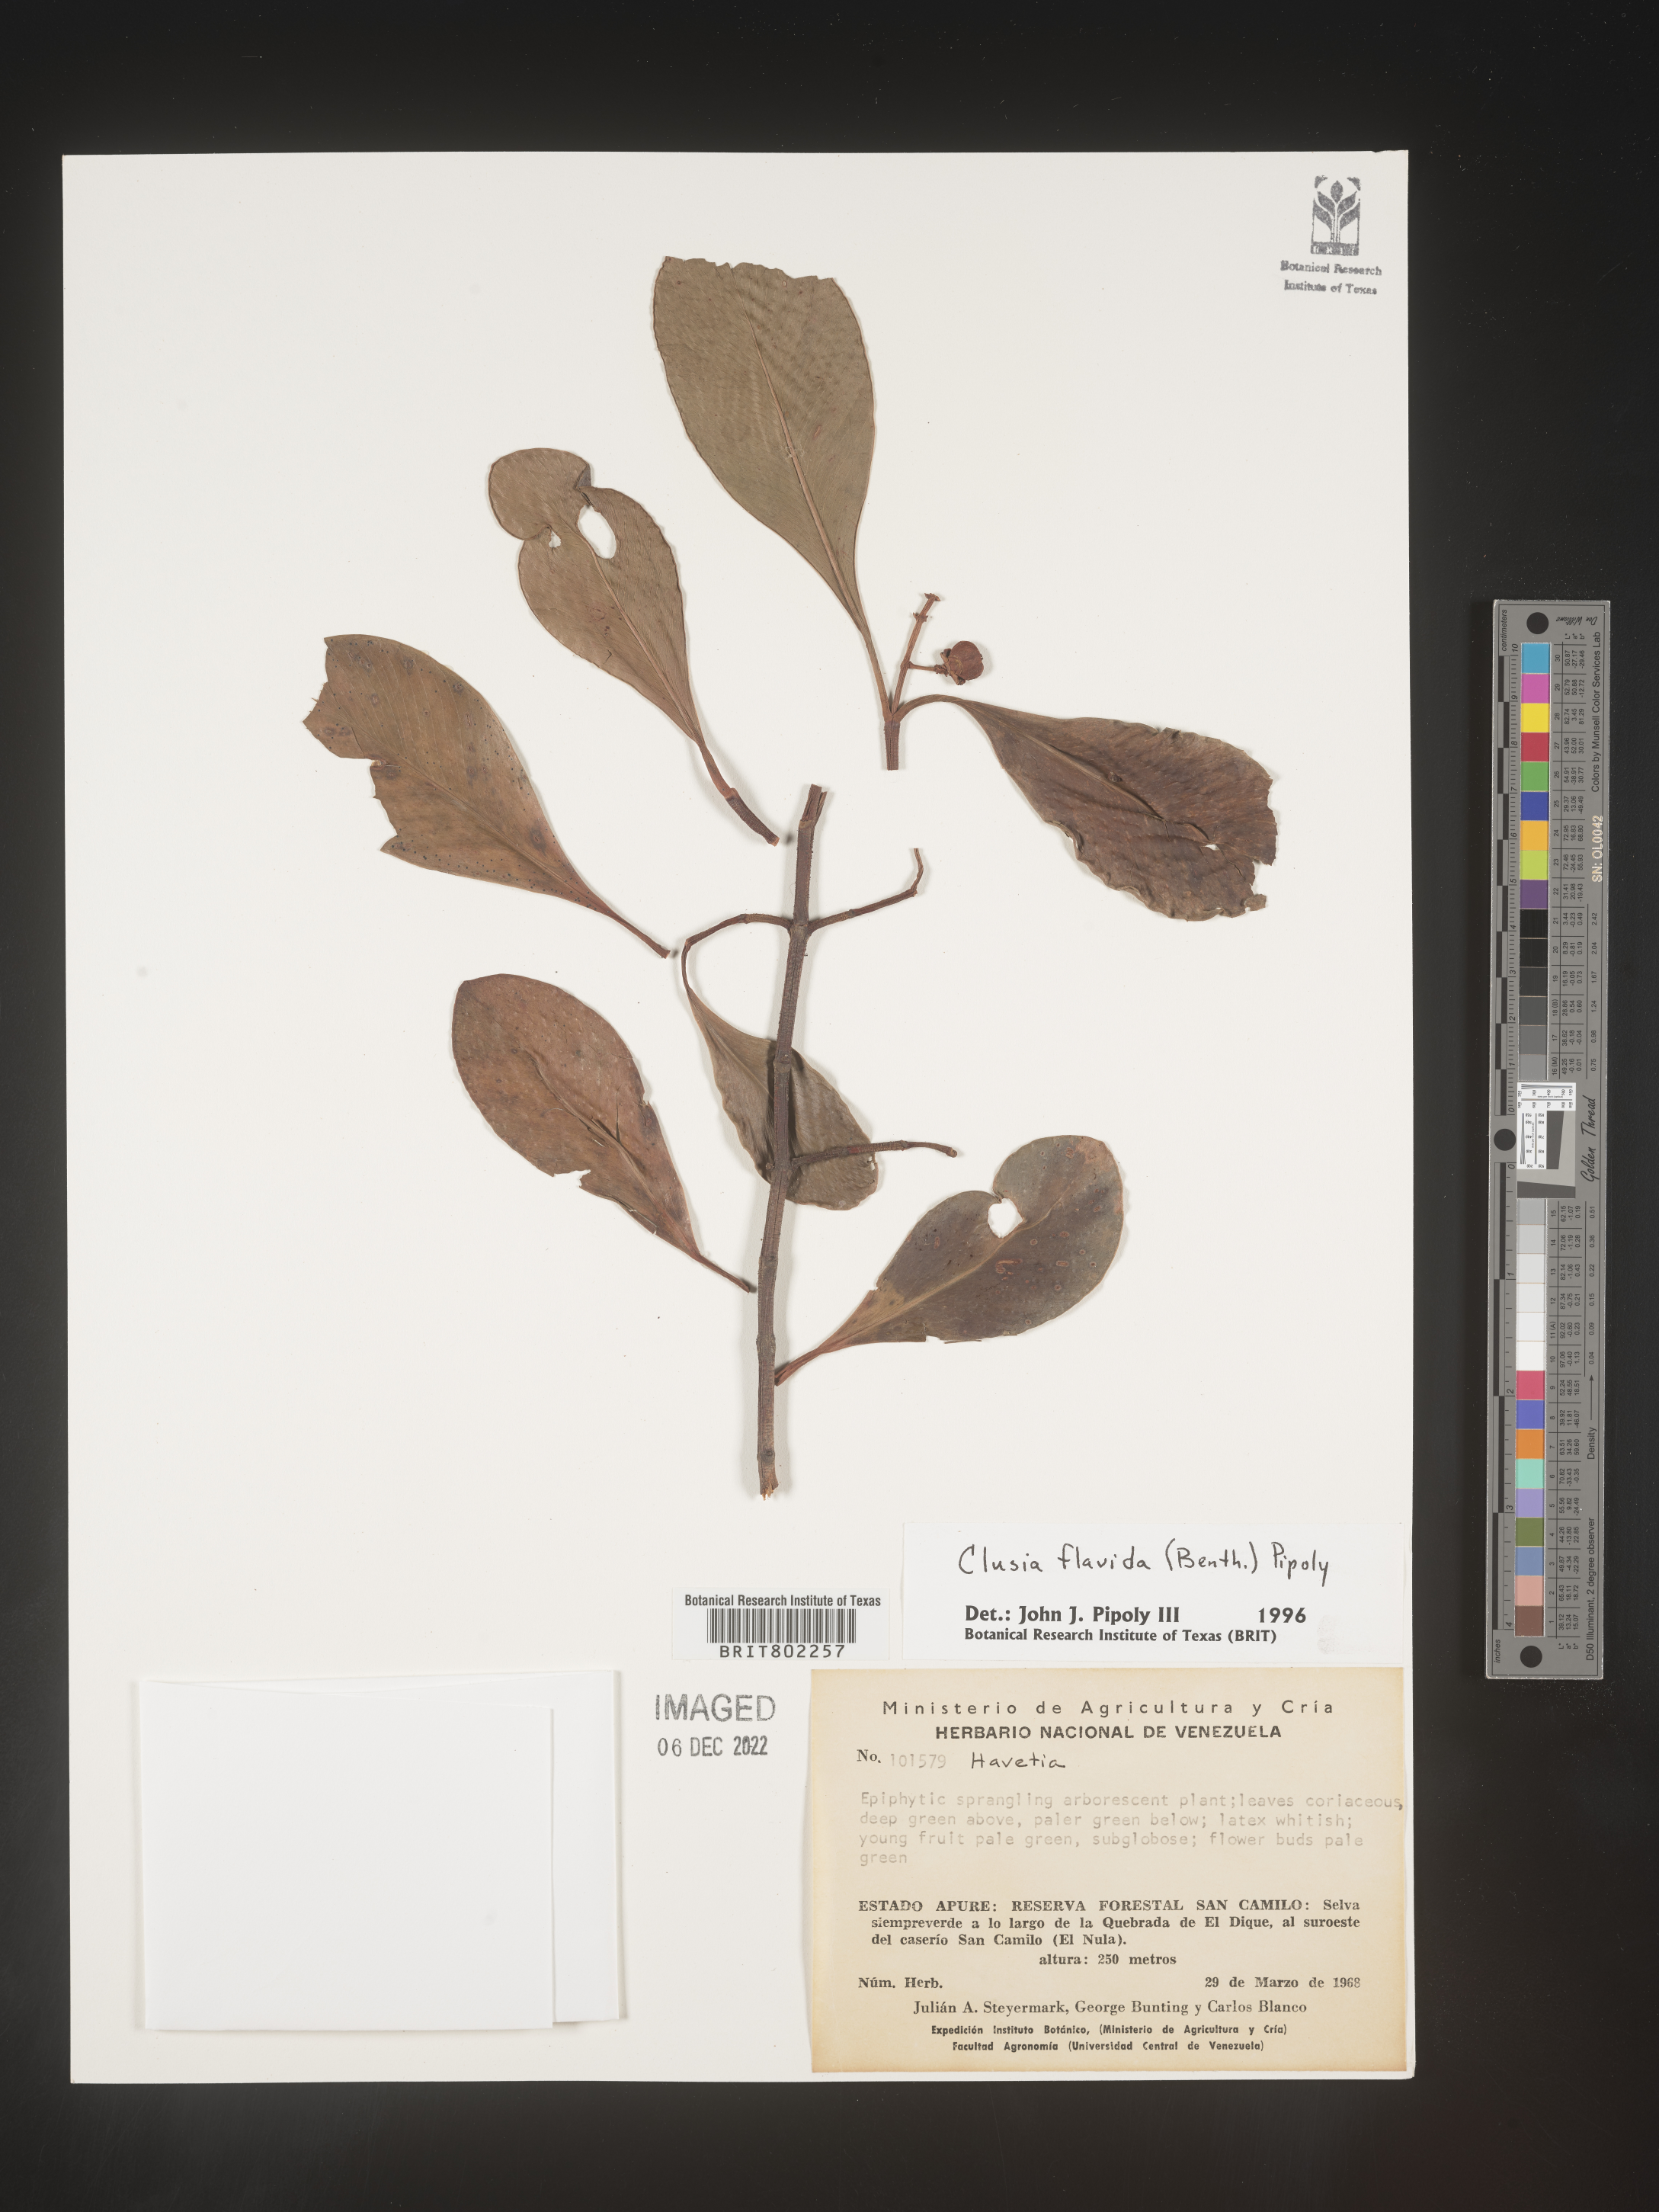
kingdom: Plantae
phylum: Tracheophyta
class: Magnoliopsida
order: Malpighiales
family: Clusiaceae
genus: Clusia
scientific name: Clusia flavida
